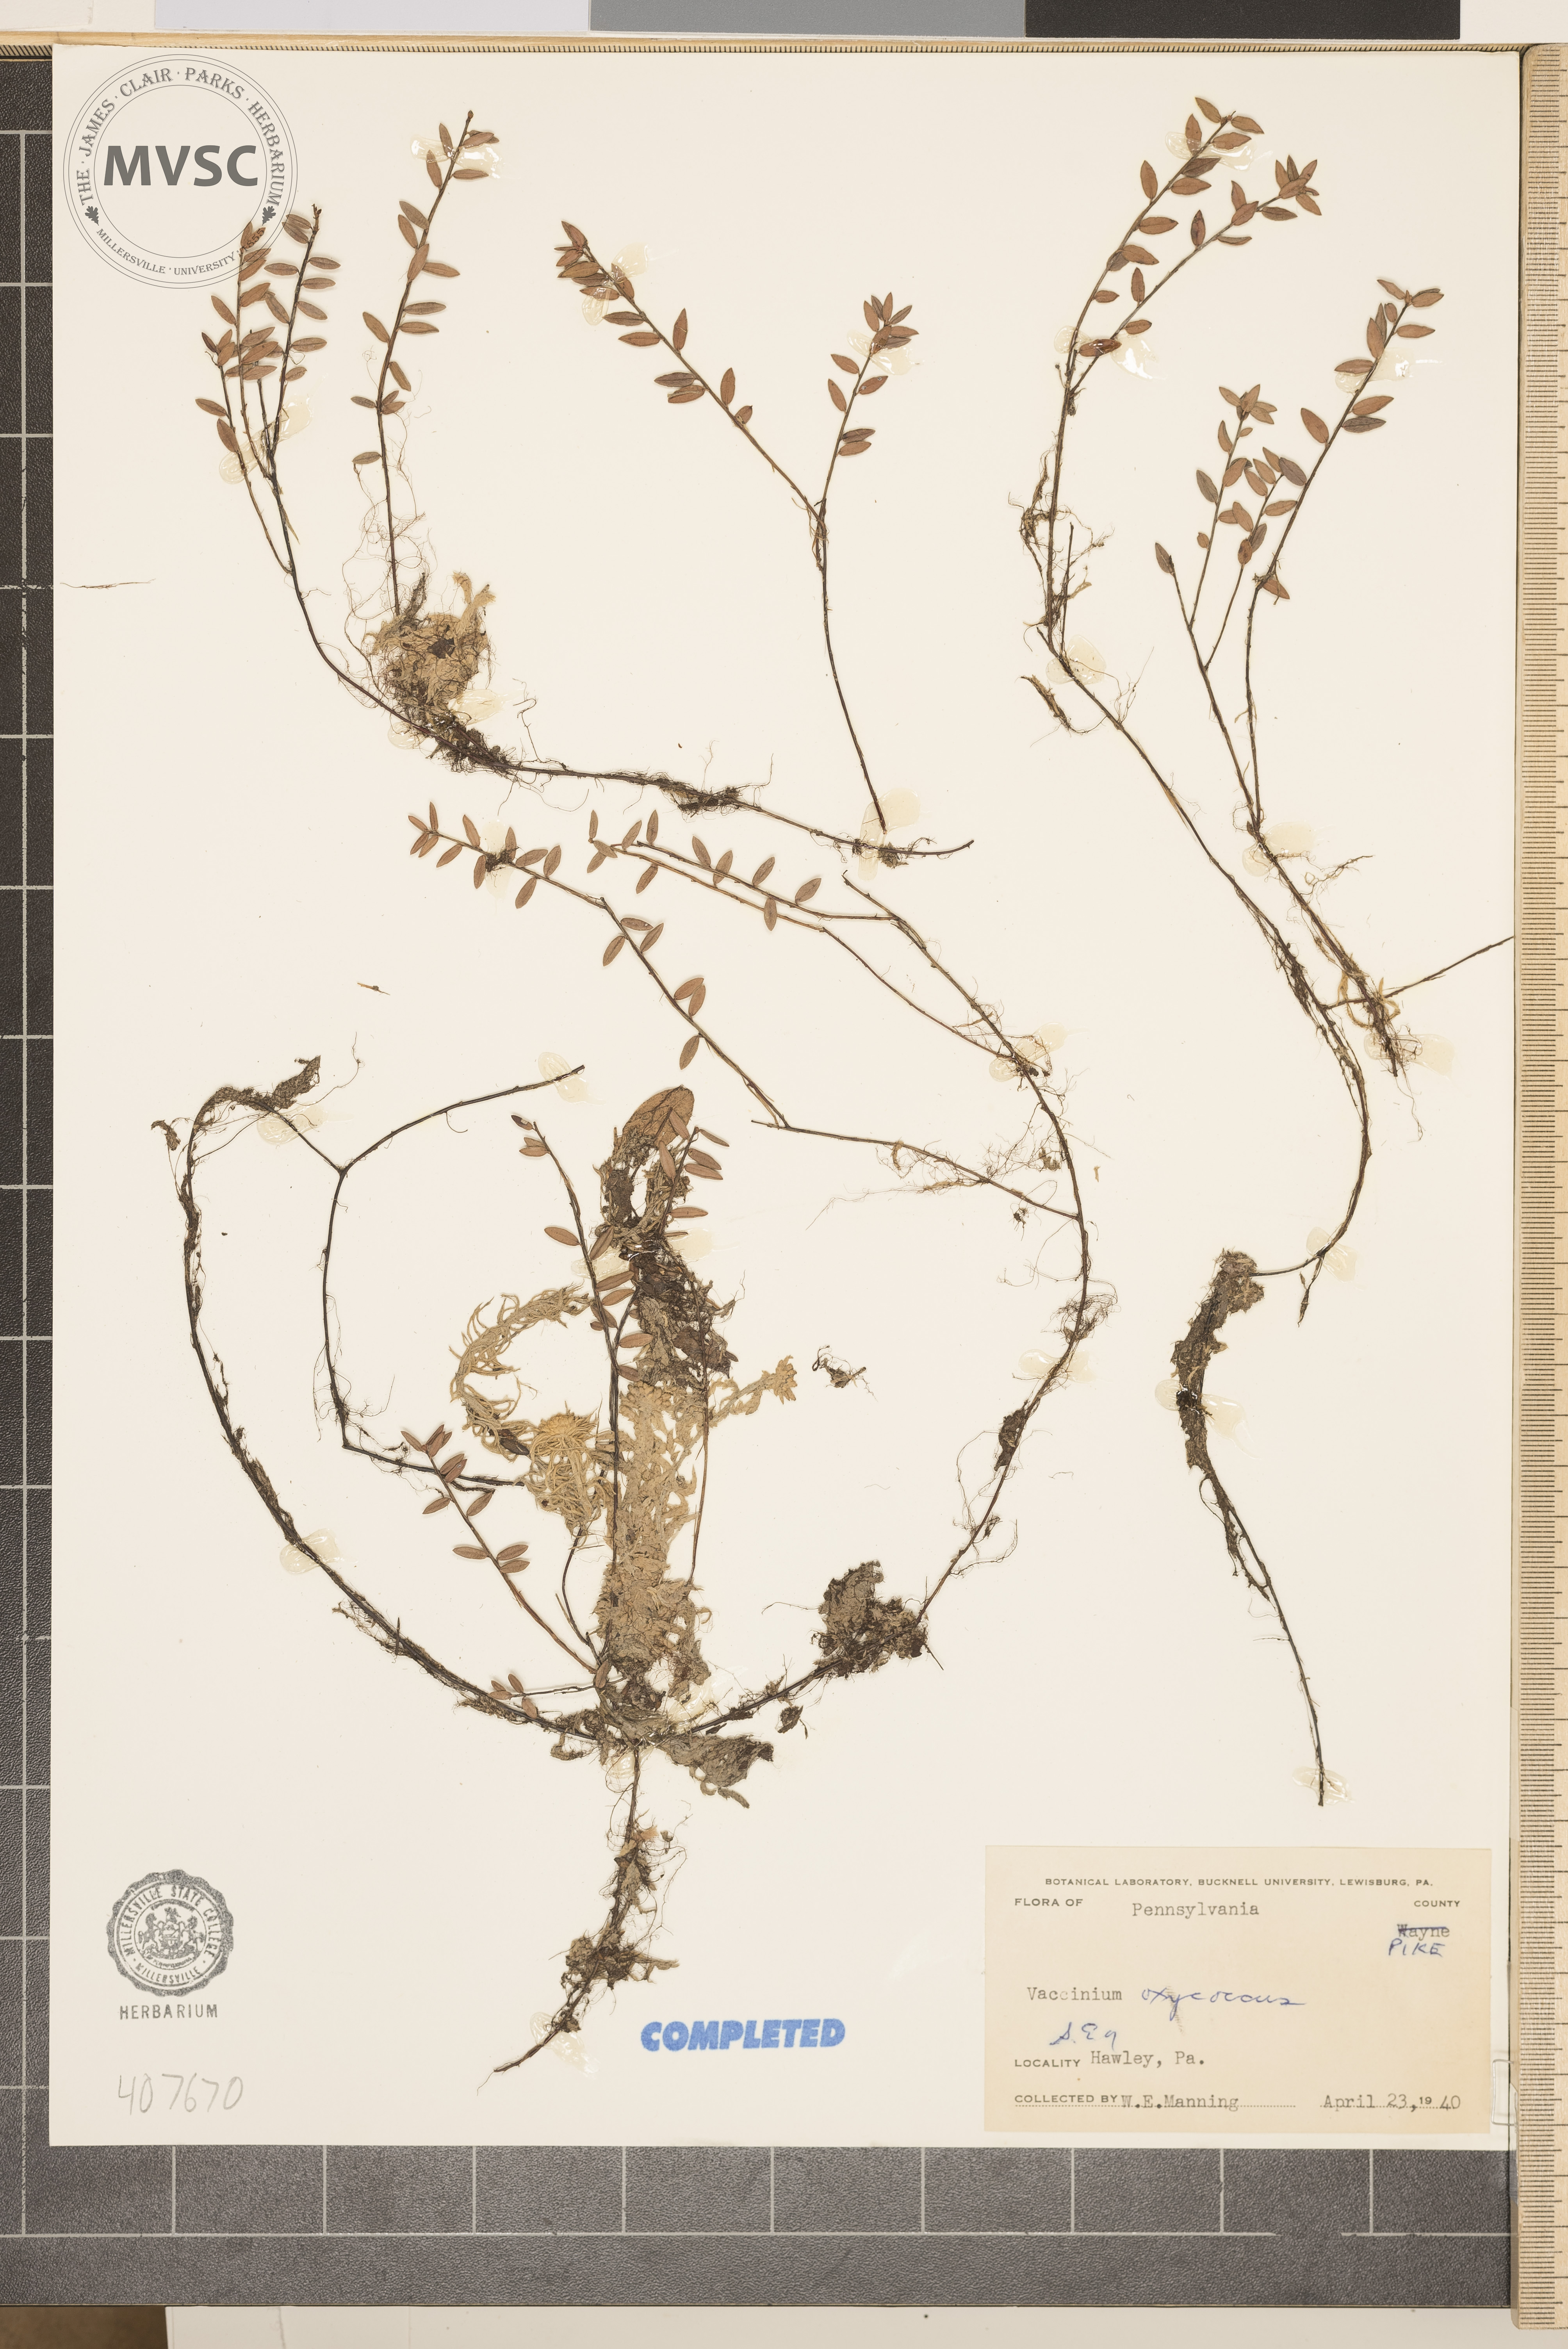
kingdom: Plantae
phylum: Tracheophyta
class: Magnoliopsida
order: Ericales
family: Ericaceae
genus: Vaccinium
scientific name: Vaccinium oxycoccos
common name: Cranberry
